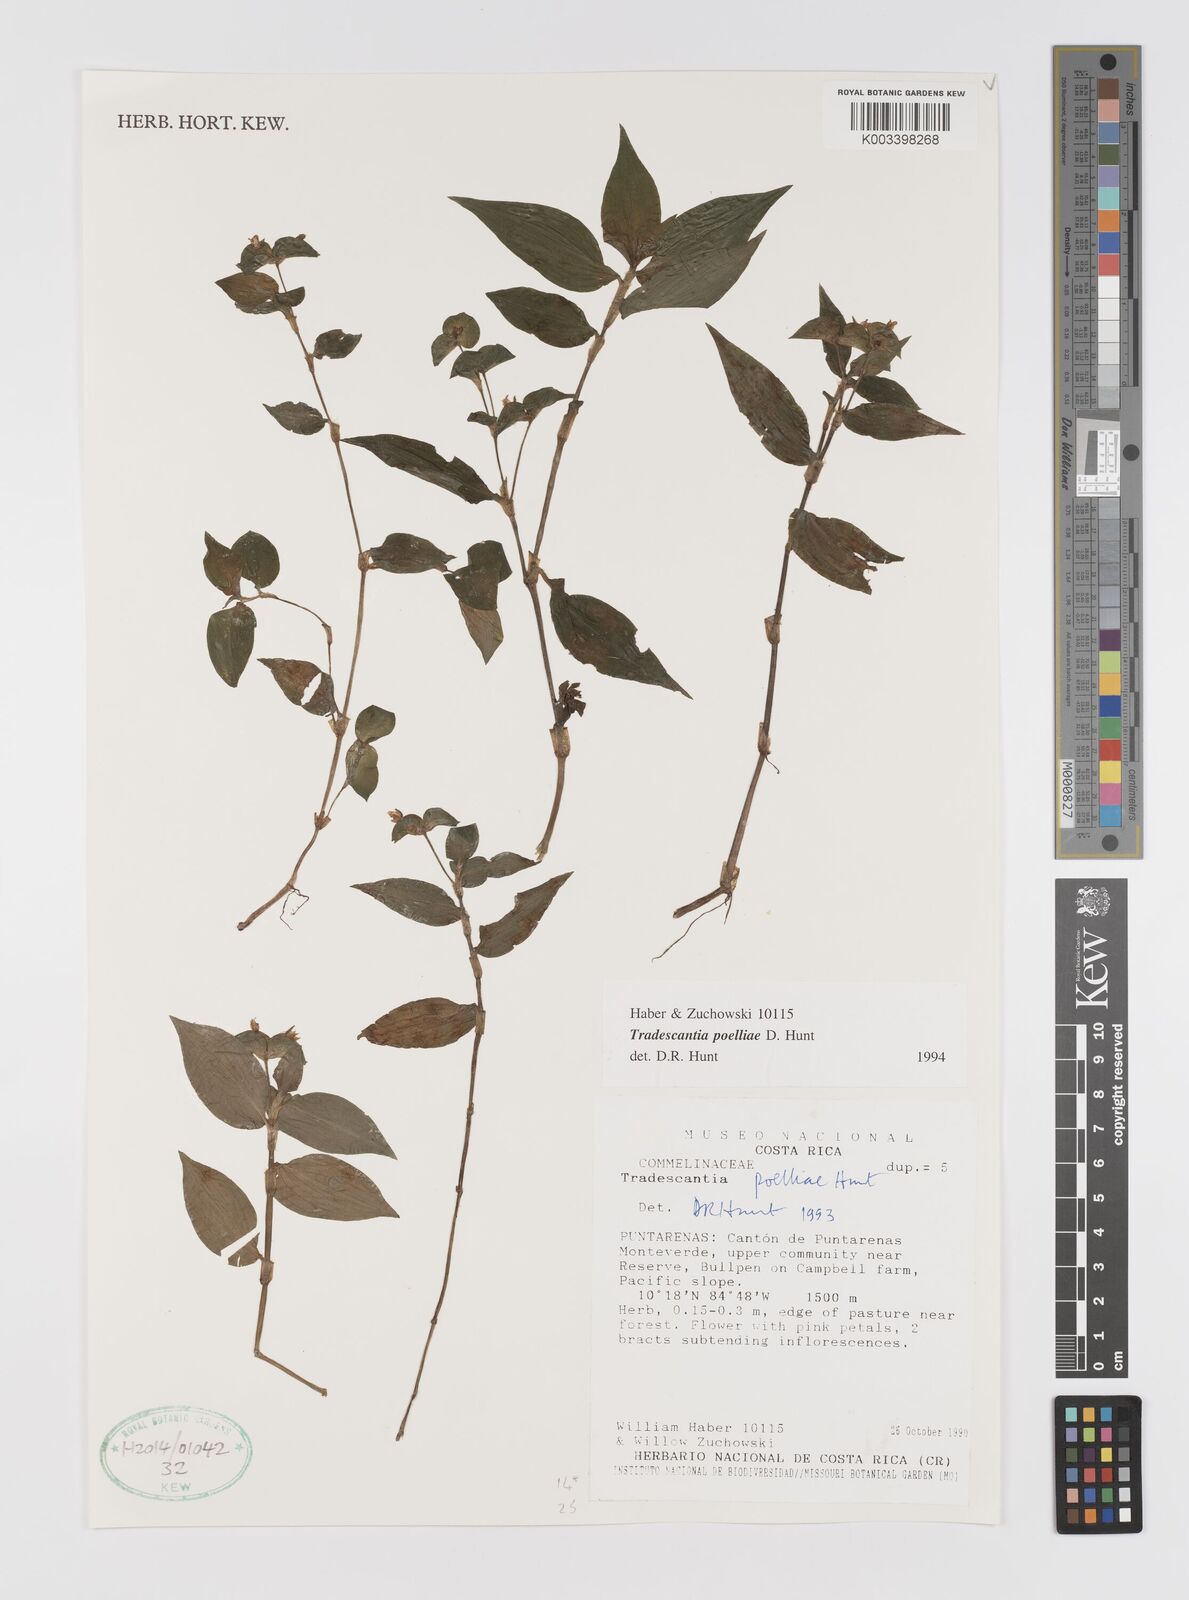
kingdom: Plantae
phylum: Tracheophyta
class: Liliopsida
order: Commelinales
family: Commelinaceae
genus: Tradescantia
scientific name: Tradescantia poelliae
